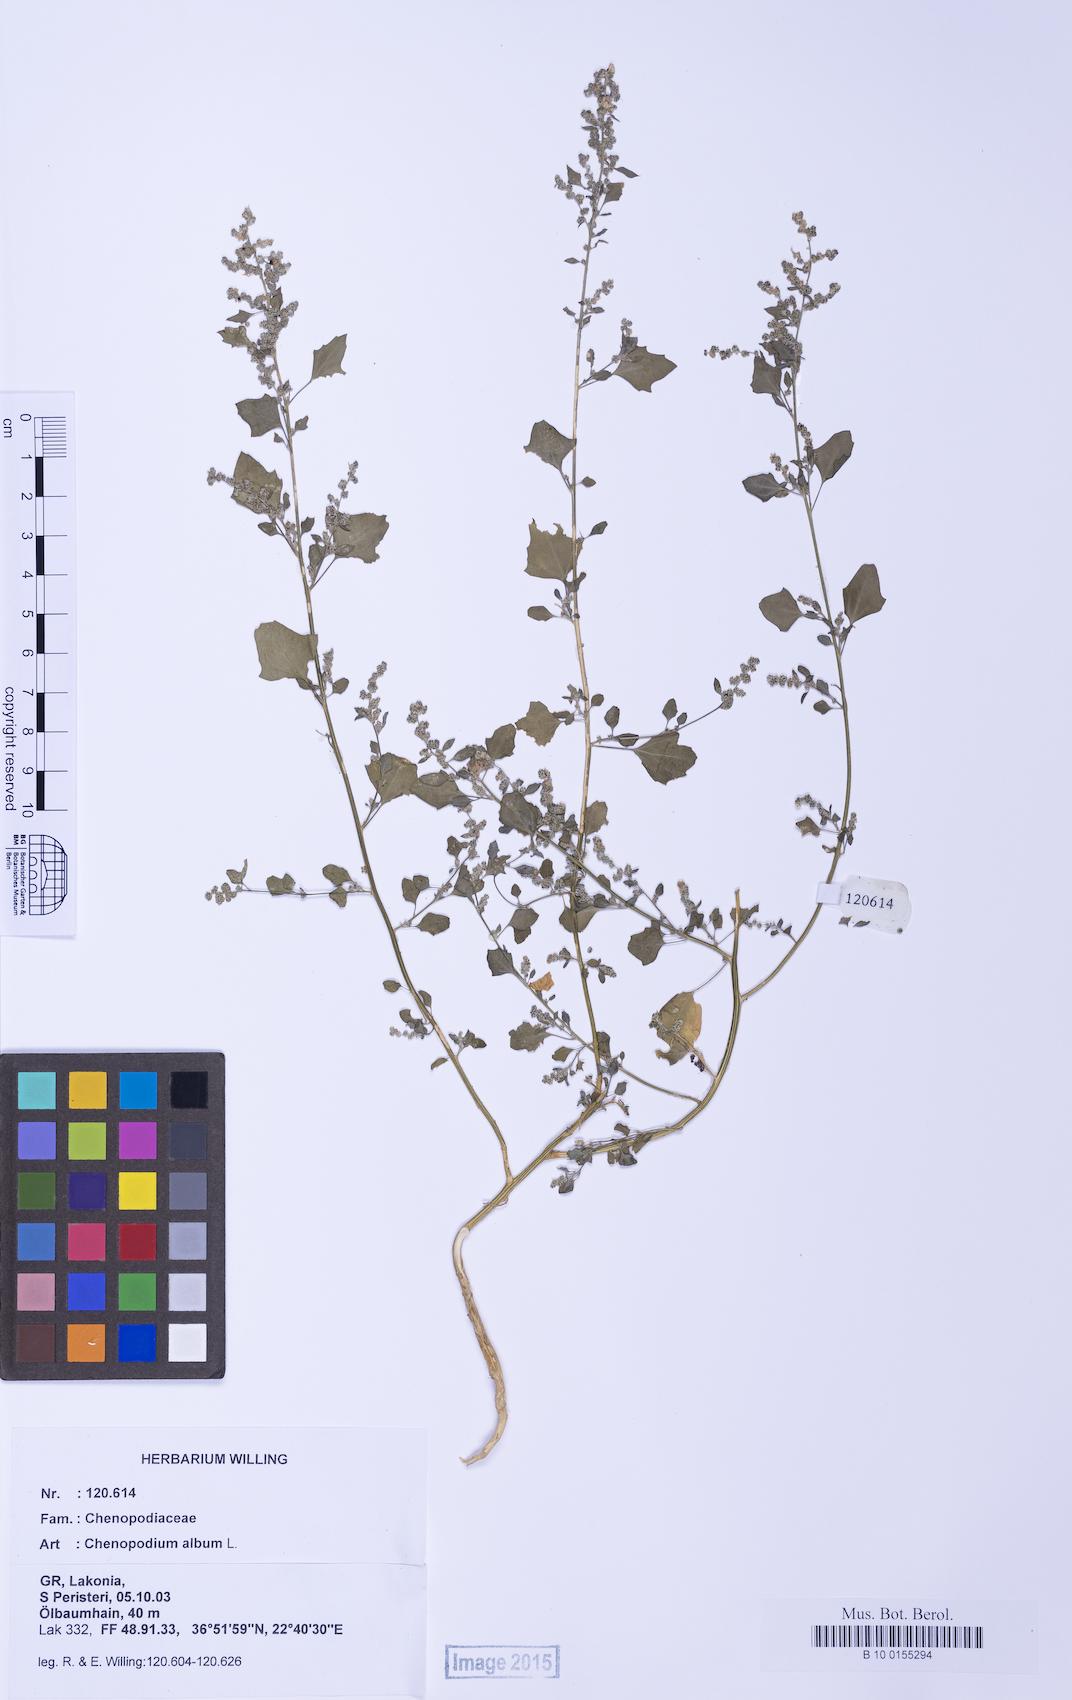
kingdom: Plantae
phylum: Tracheophyta
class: Magnoliopsida
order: Caryophyllales
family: Amaranthaceae
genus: Chenopodium
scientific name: Chenopodium opulifolium
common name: Grey goosefoot
